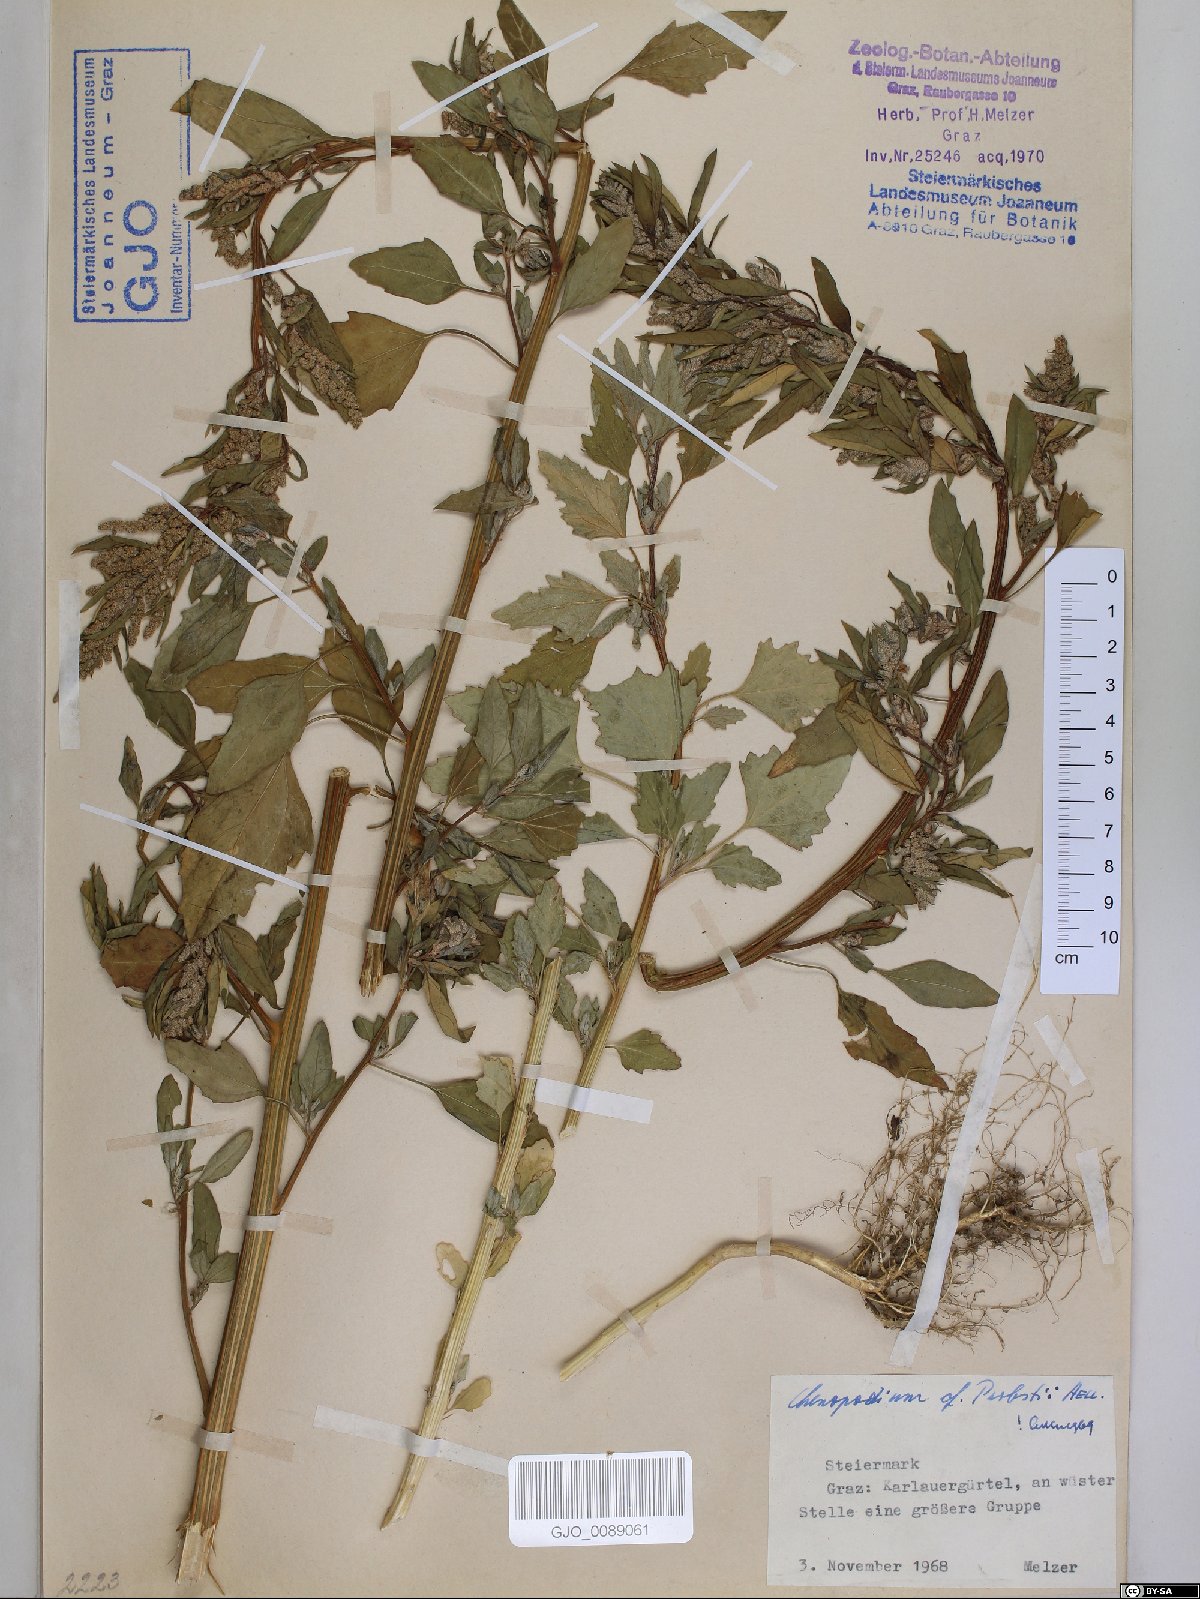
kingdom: Plantae
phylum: Tracheophyta
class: Magnoliopsida
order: Caryophyllales
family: Amaranthaceae
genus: Chenopodium
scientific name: Chenopodium probstii
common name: Probst's goosefoot
